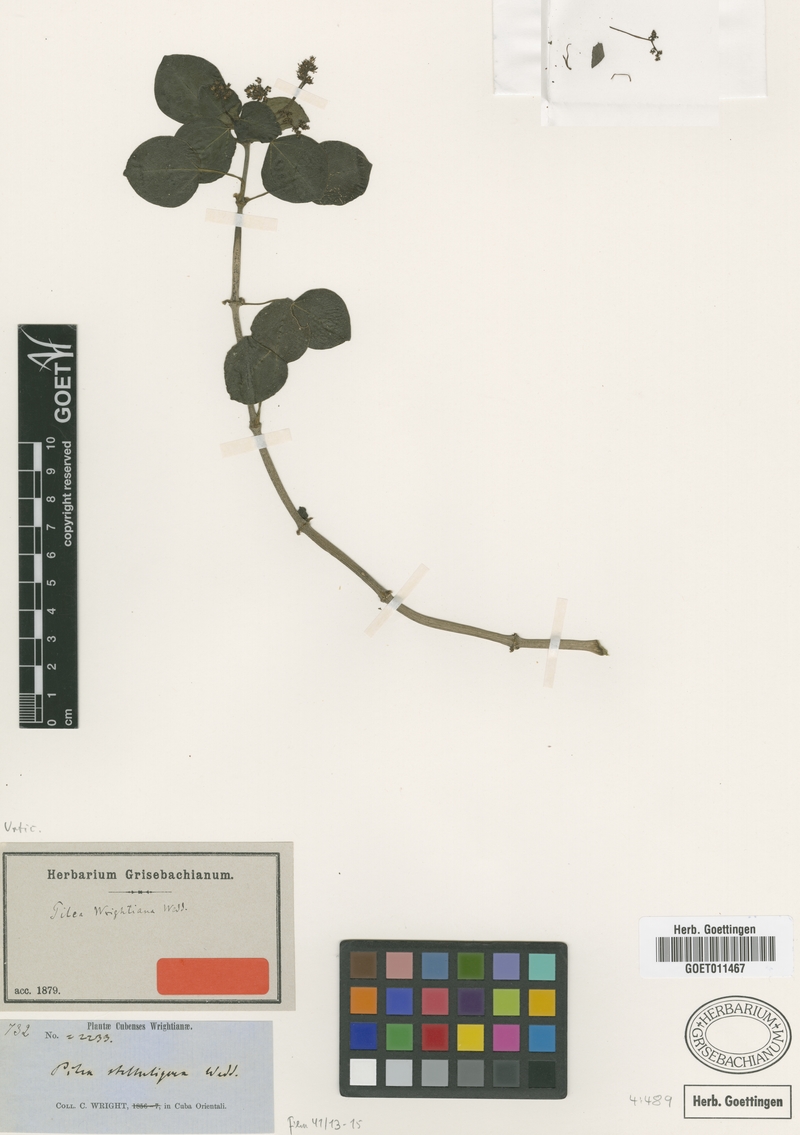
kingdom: Plantae
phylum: Tracheophyta
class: Magnoliopsida
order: Rosales
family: Urticaceae
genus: Pilea
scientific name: Pilea wrightiana
